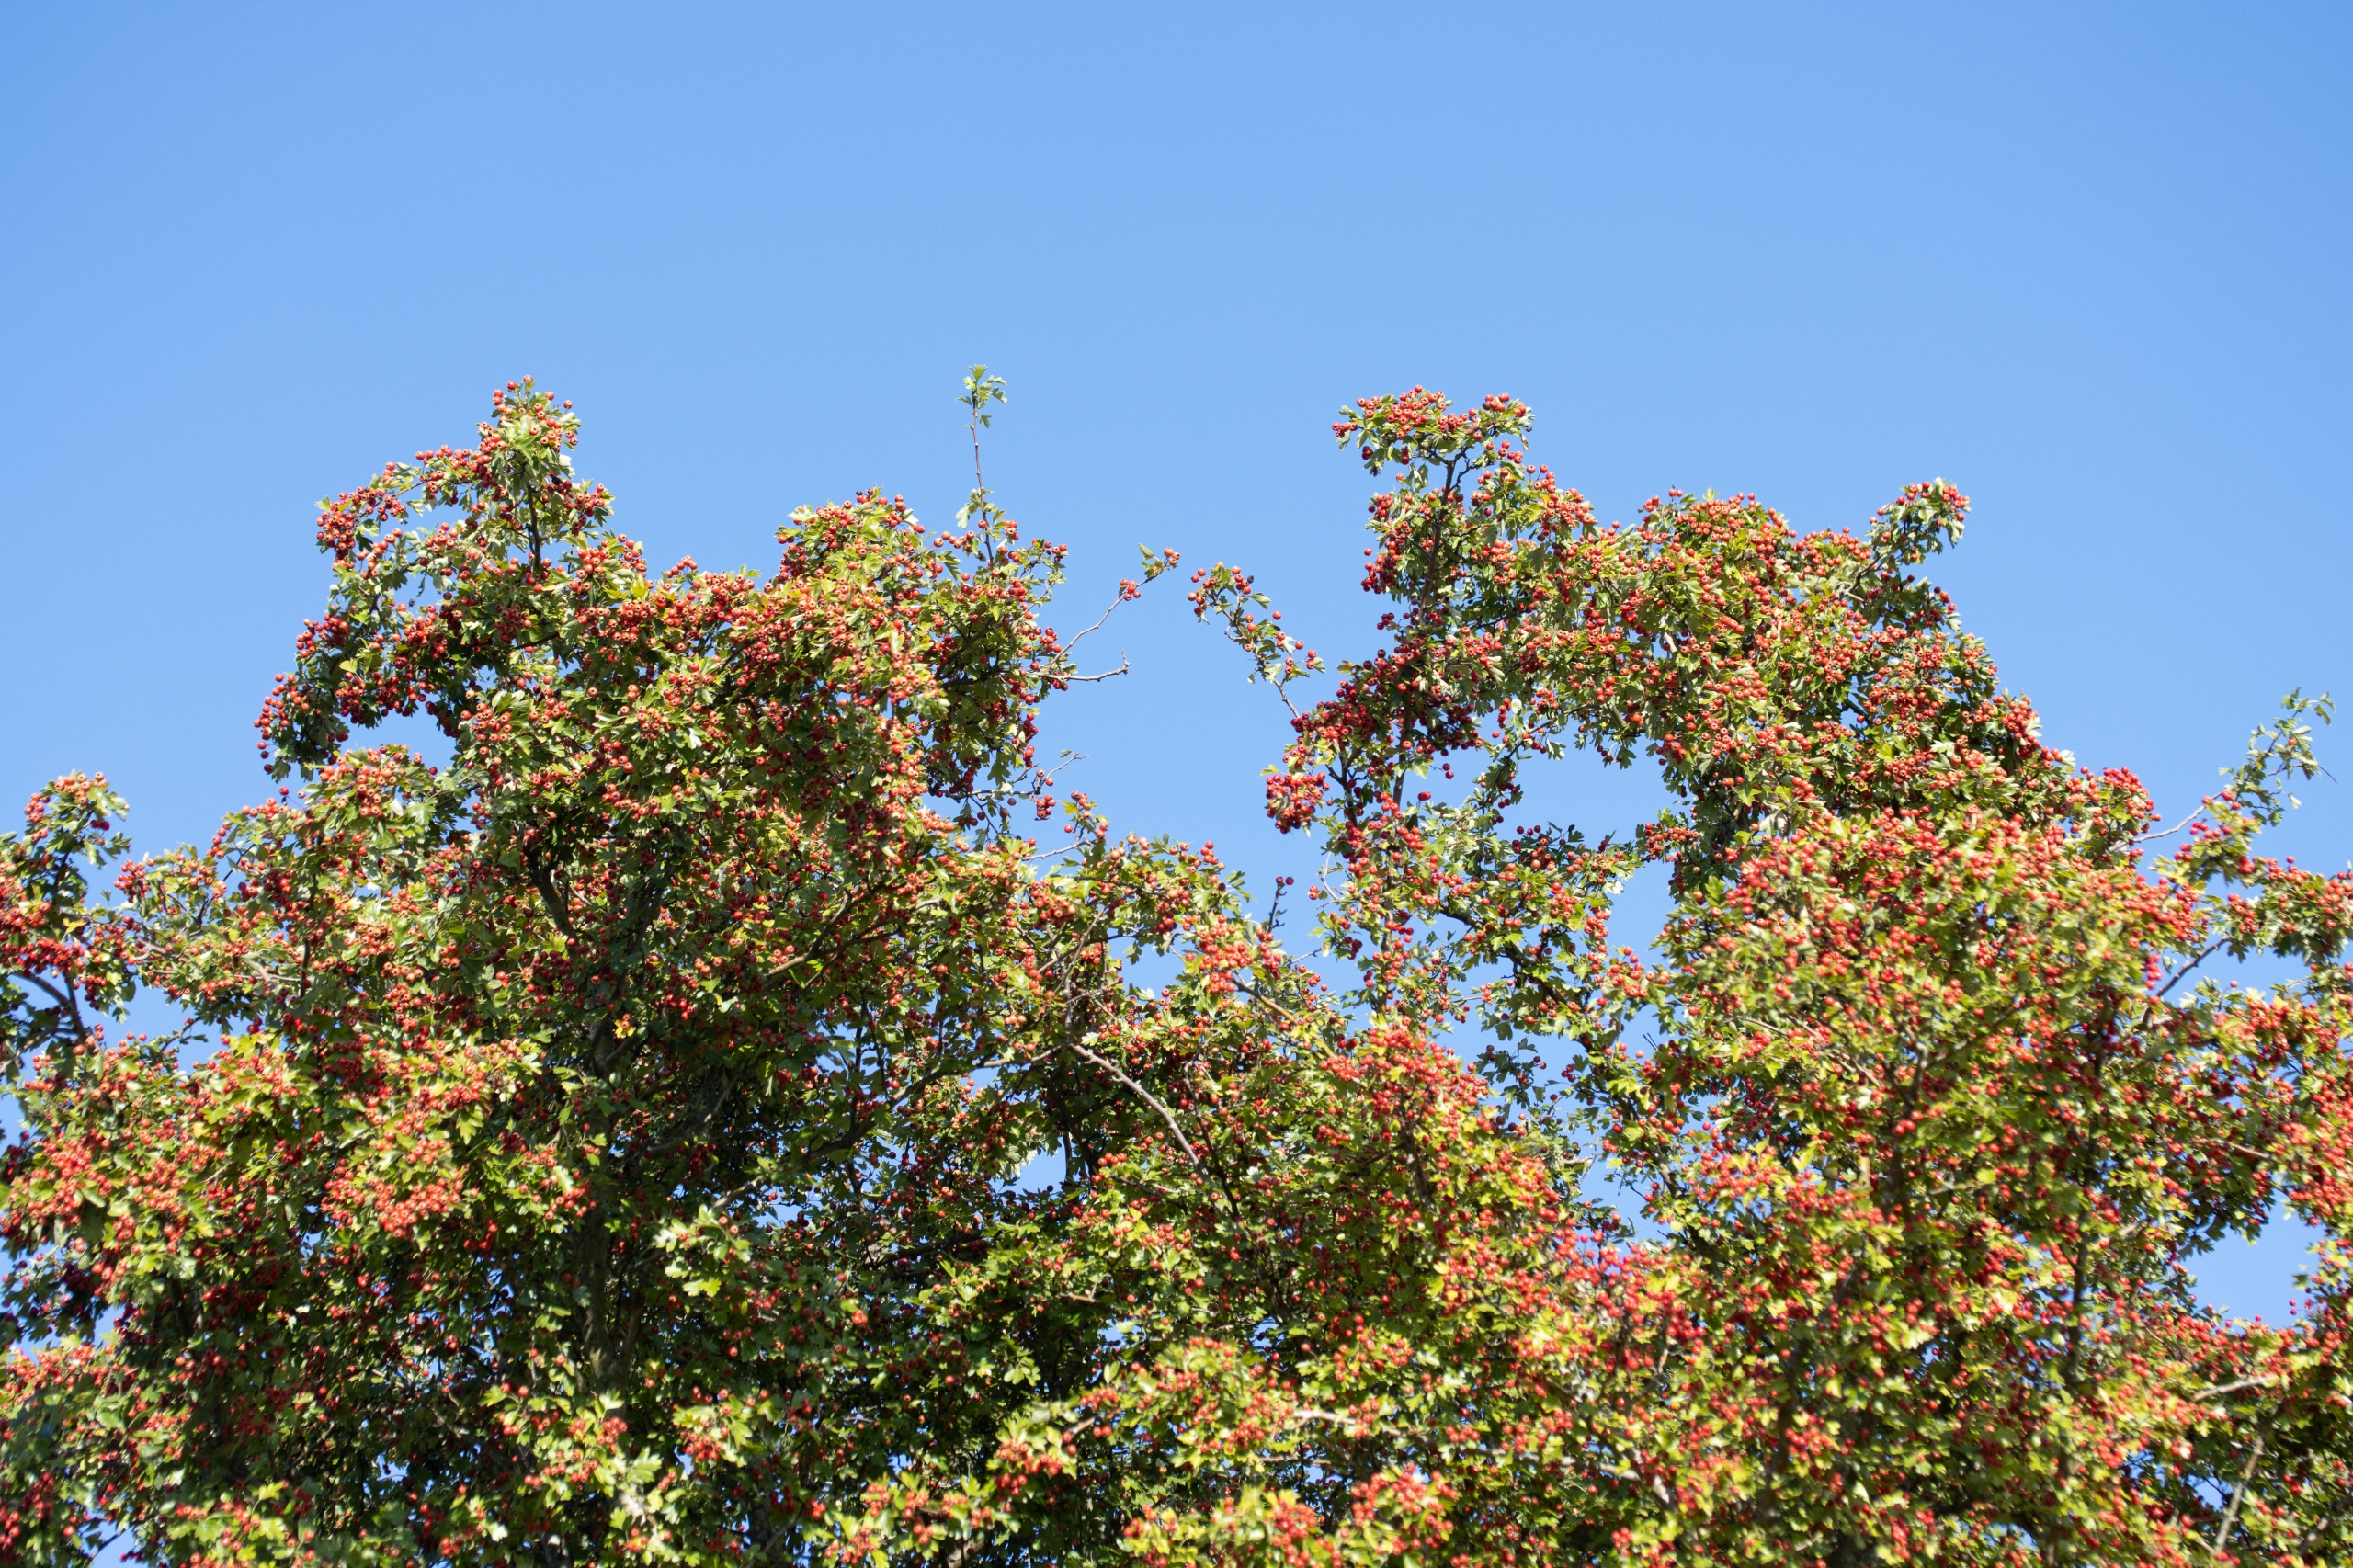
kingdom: Plantae
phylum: Tracheophyta
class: Magnoliopsida
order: Rosales
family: Rosaceae
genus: Crataegus
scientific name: Crataegus monogyna
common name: Engriflet hvidtjørn
